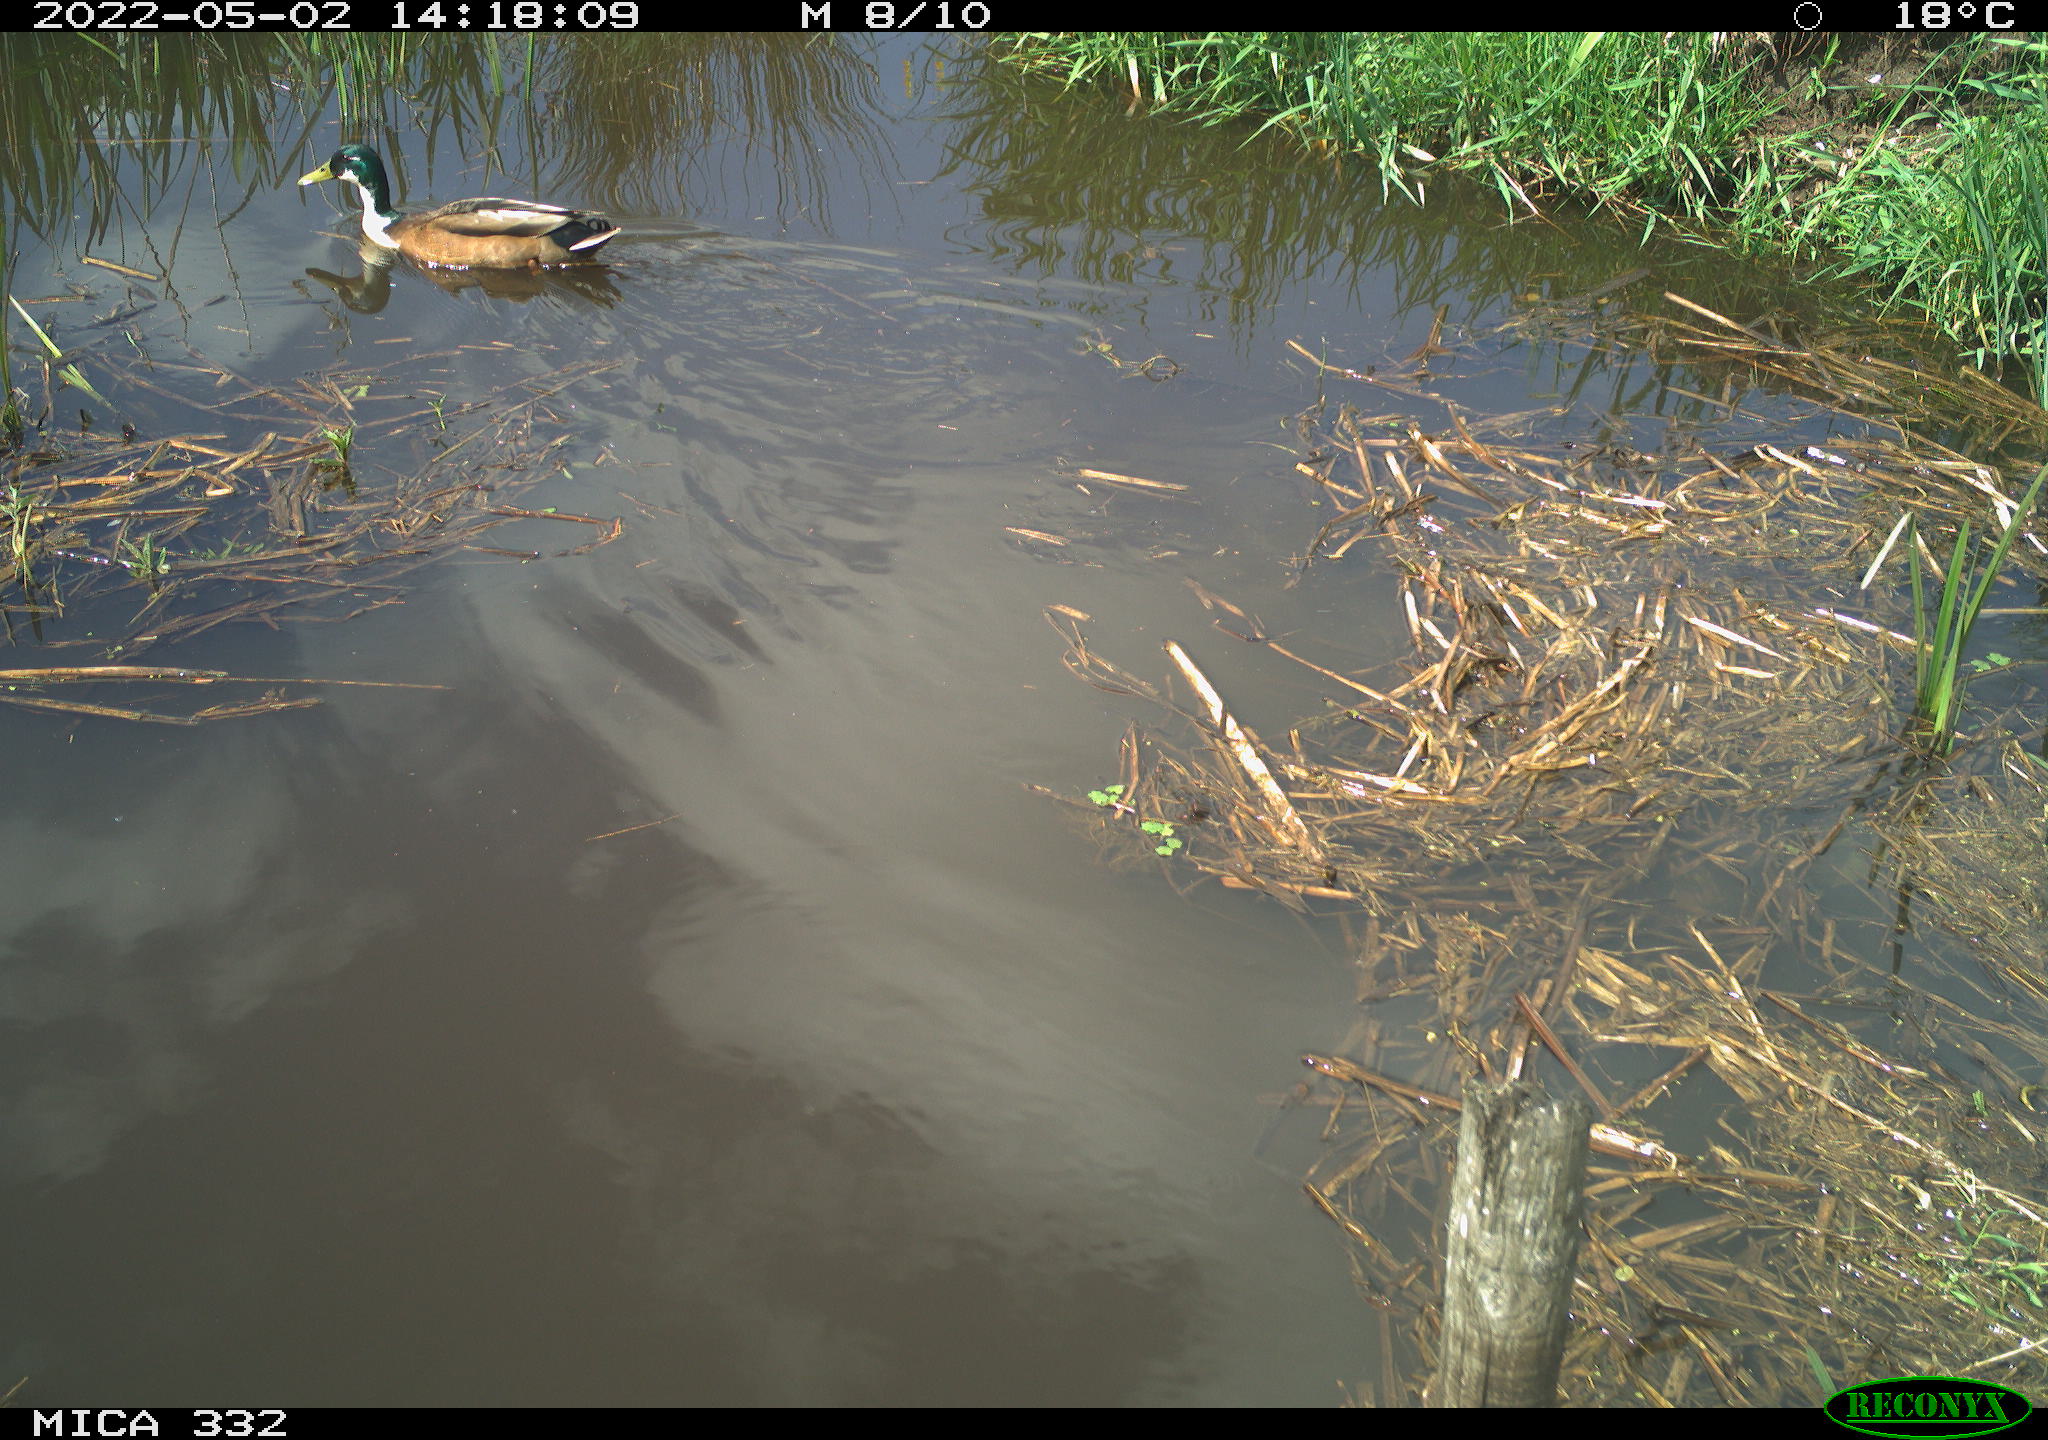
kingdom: Animalia
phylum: Chordata
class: Aves
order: Anseriformes
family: Anatidae
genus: Anas
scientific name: Anas platyrhynchos
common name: Mallard
